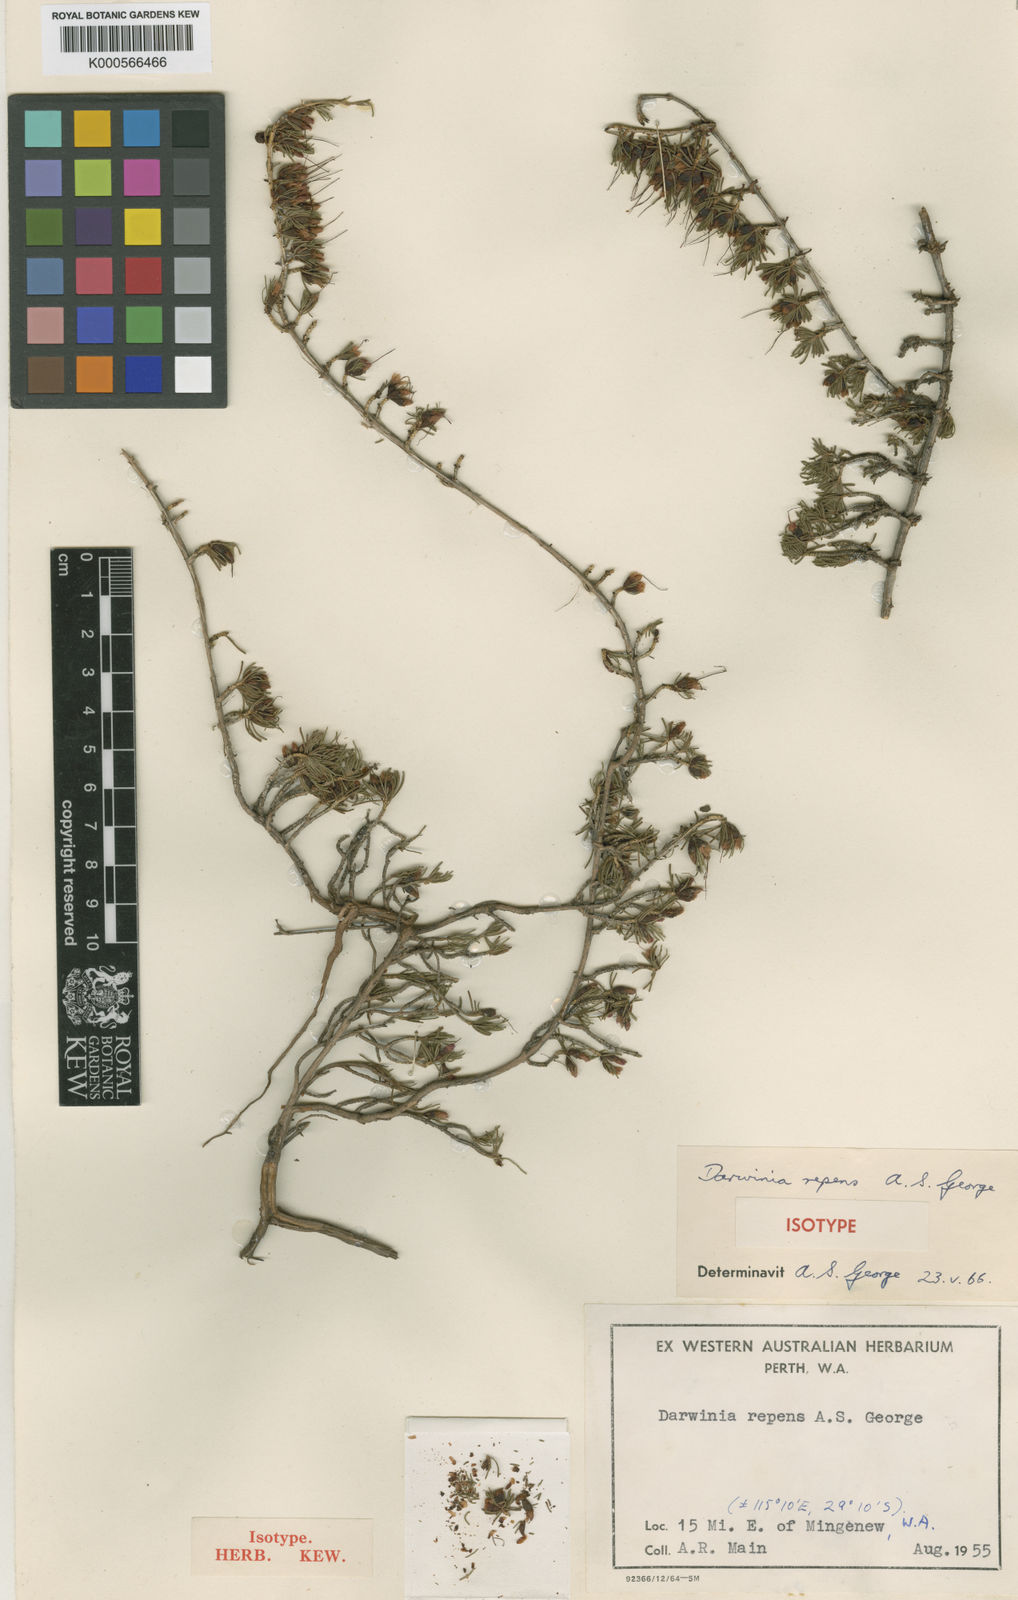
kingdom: Plantae
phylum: Tracheophyta
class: Magnoliopsida
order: Myrtales
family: Myrtaceae
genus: Chamelaucium
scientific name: Chamelaucium repens
